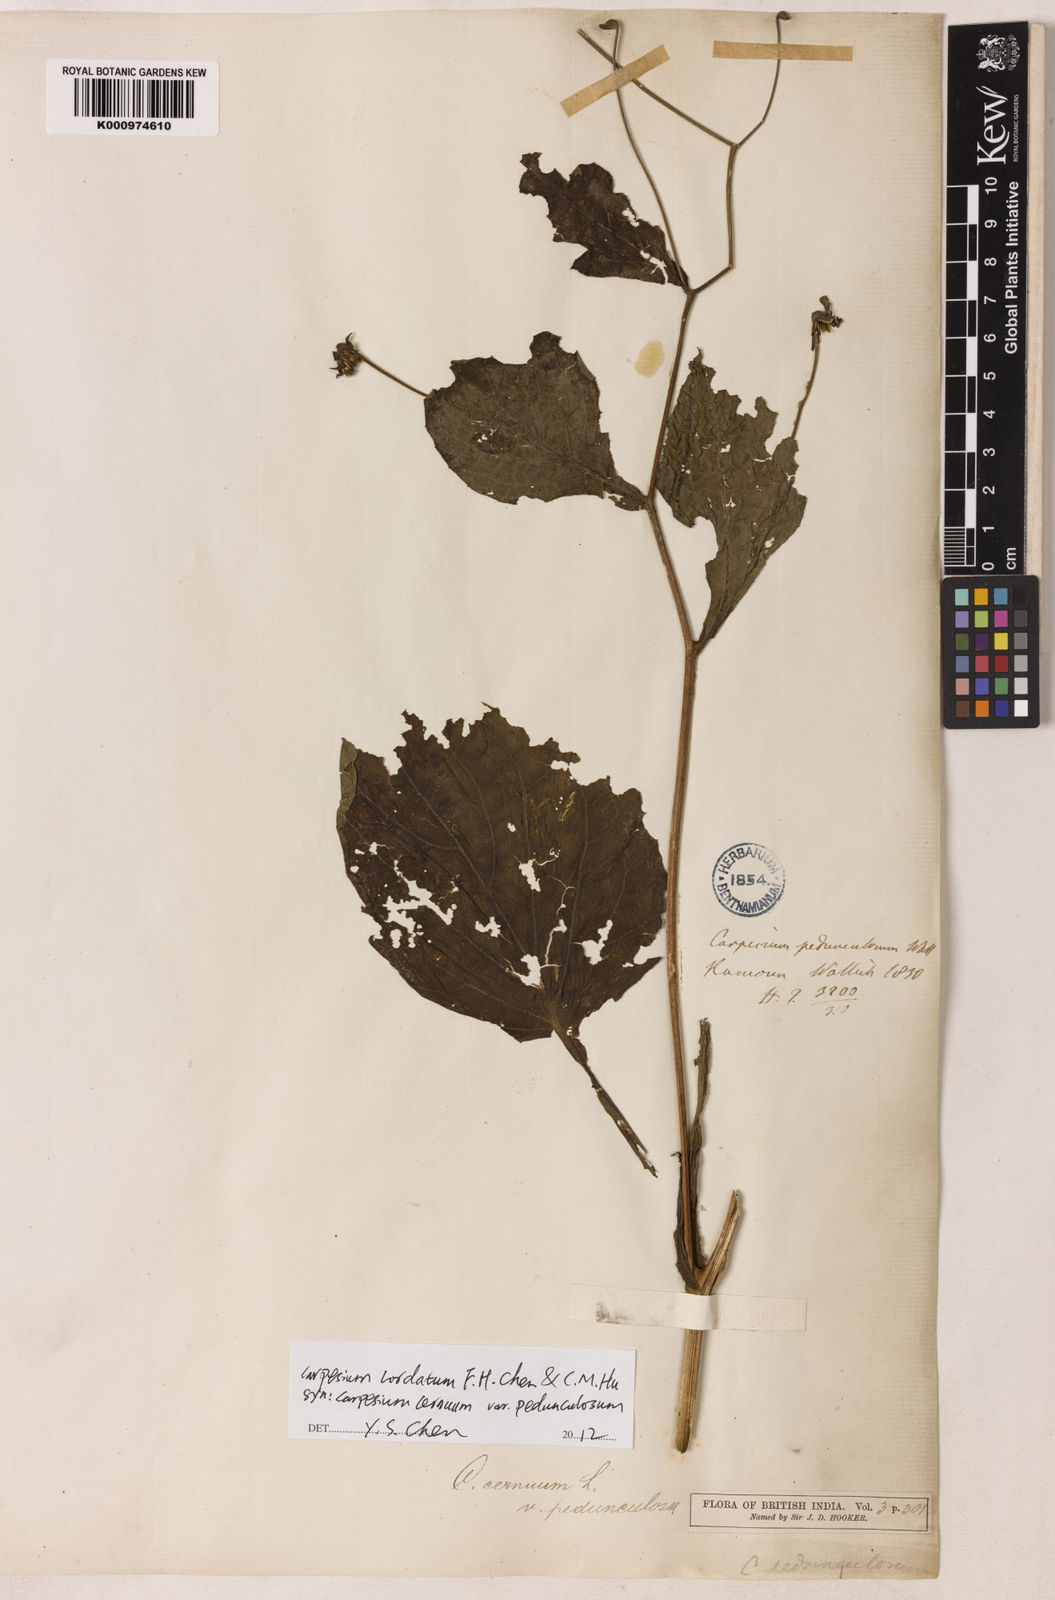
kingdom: Plantae
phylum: Tracheophyta
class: Magnoliopsida
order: Asterales
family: Asteraceae
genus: Carpesium
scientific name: Carpesium pedunculosum
